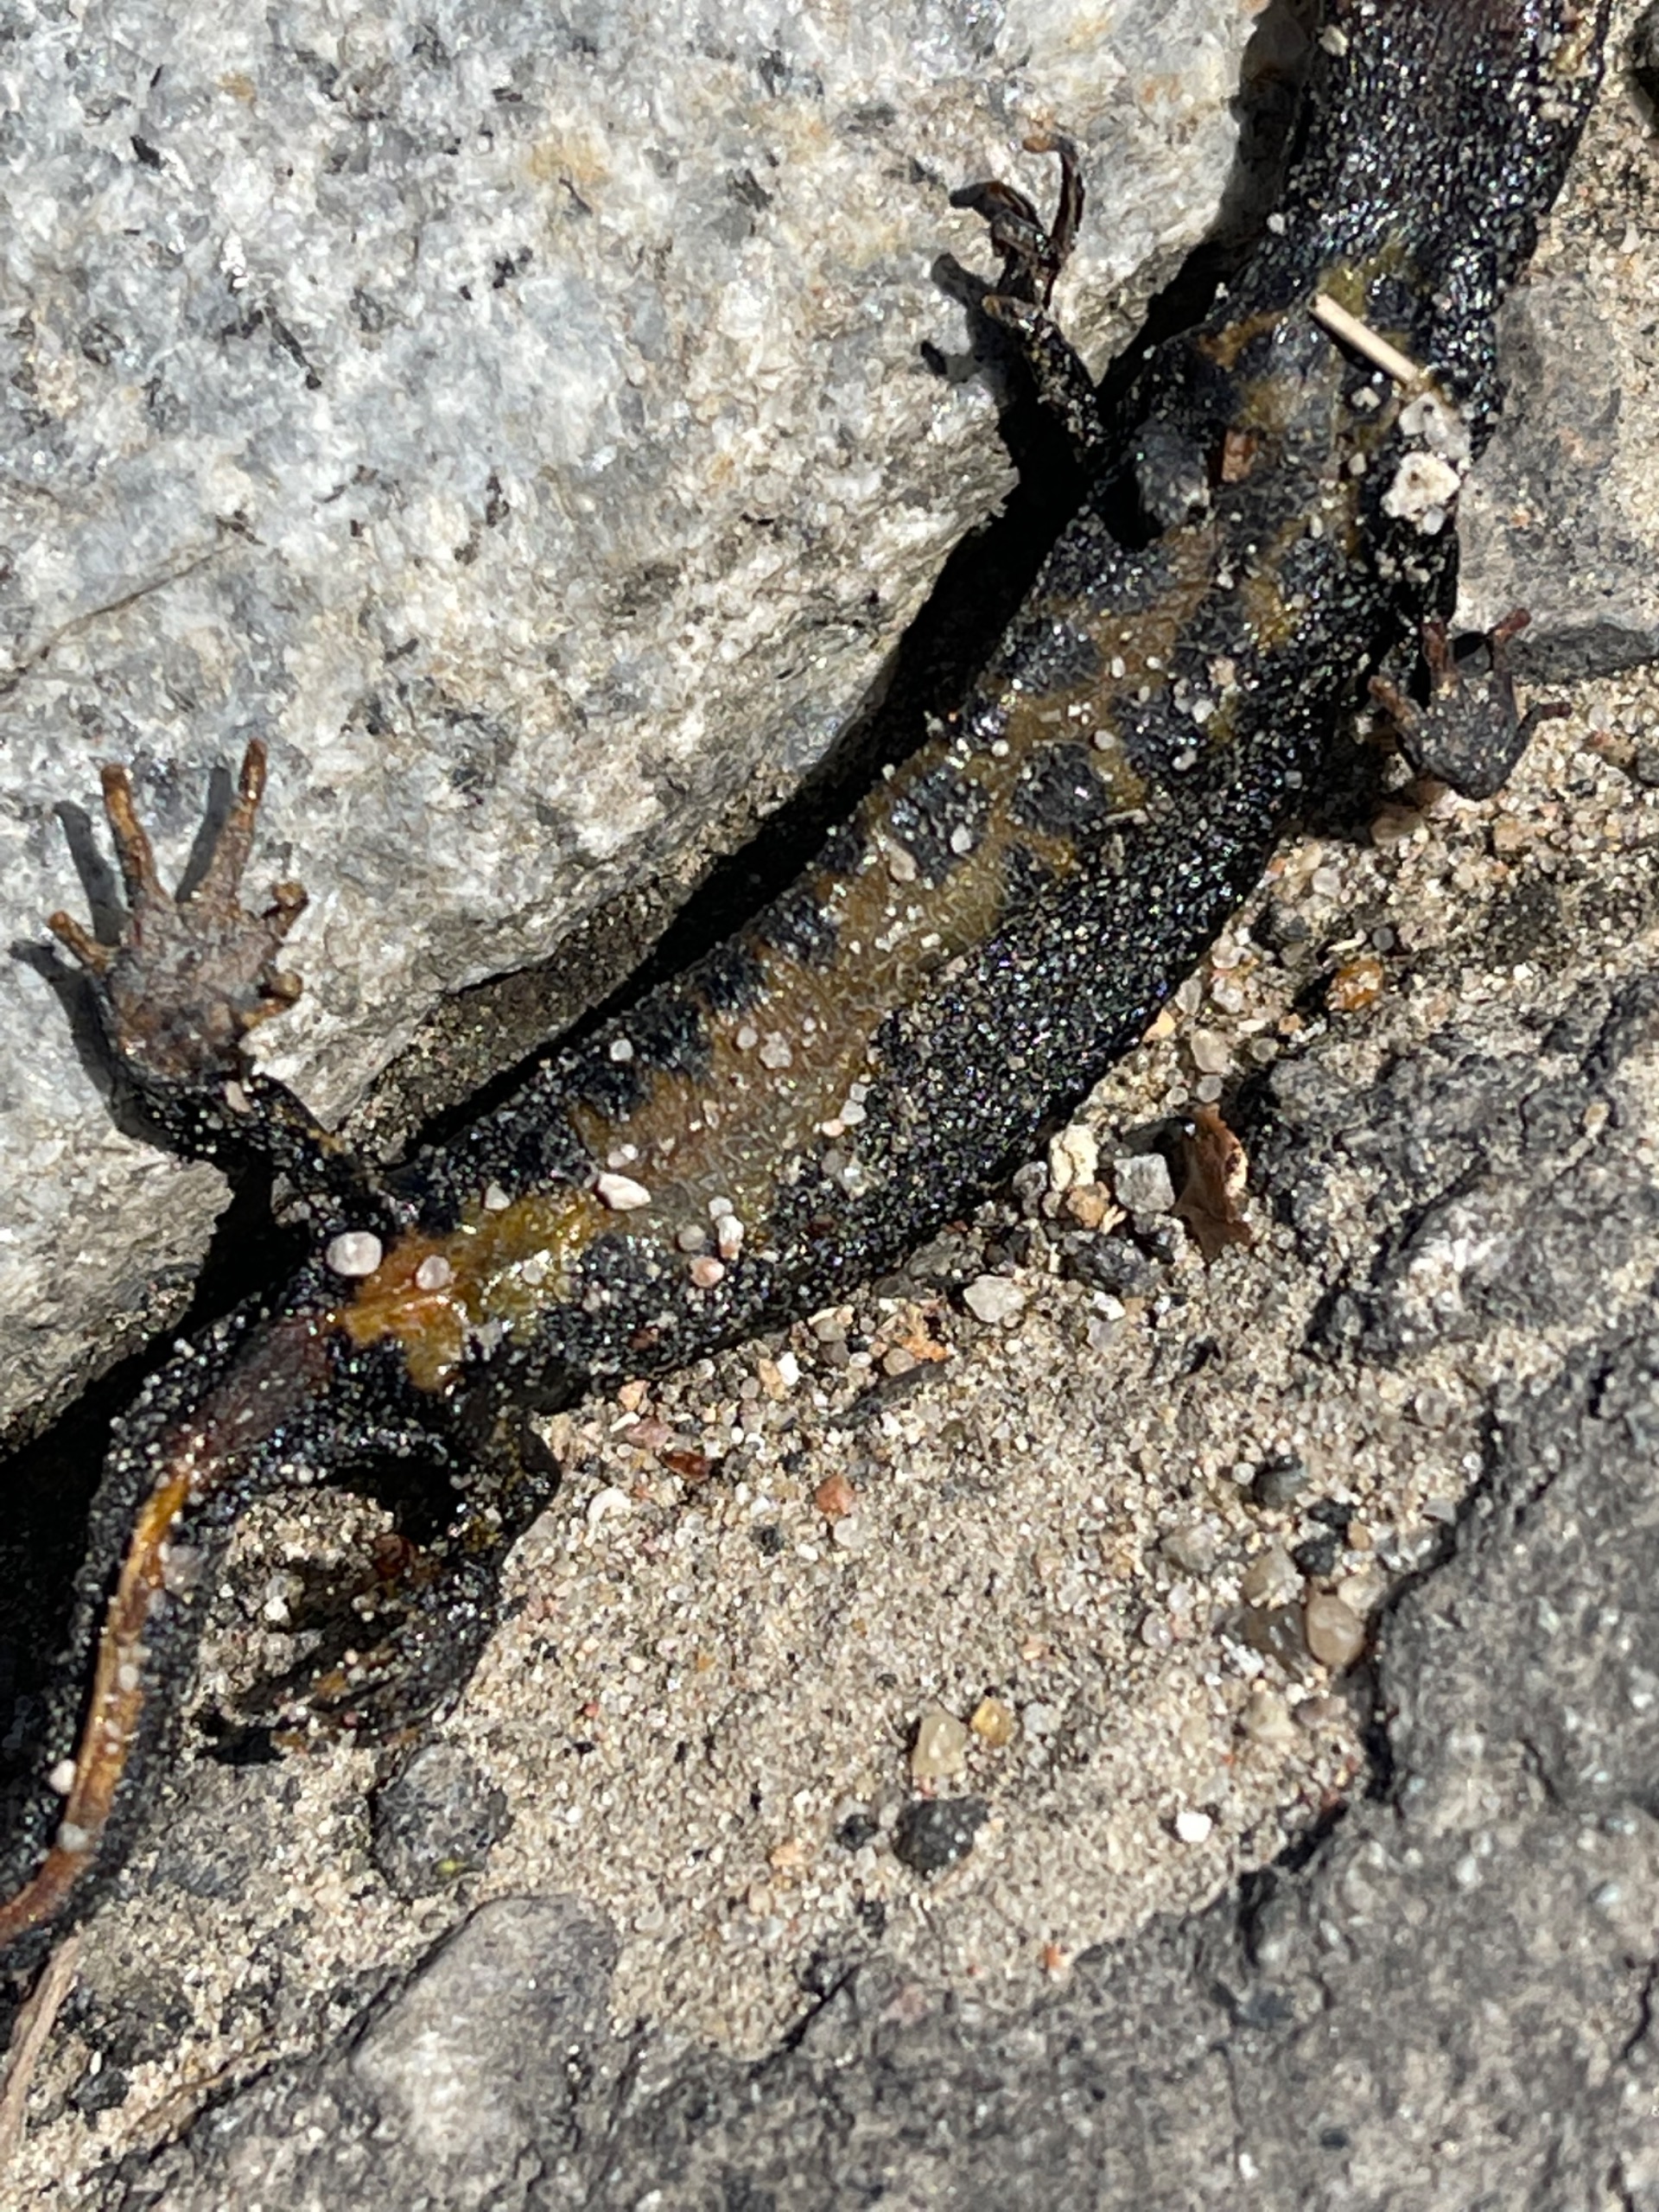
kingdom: Animalia
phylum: Chordata
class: Amphibia
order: Caudata
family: Salamandridae
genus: Triturus
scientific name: Triturus cristatus
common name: Stor vandsalamander
